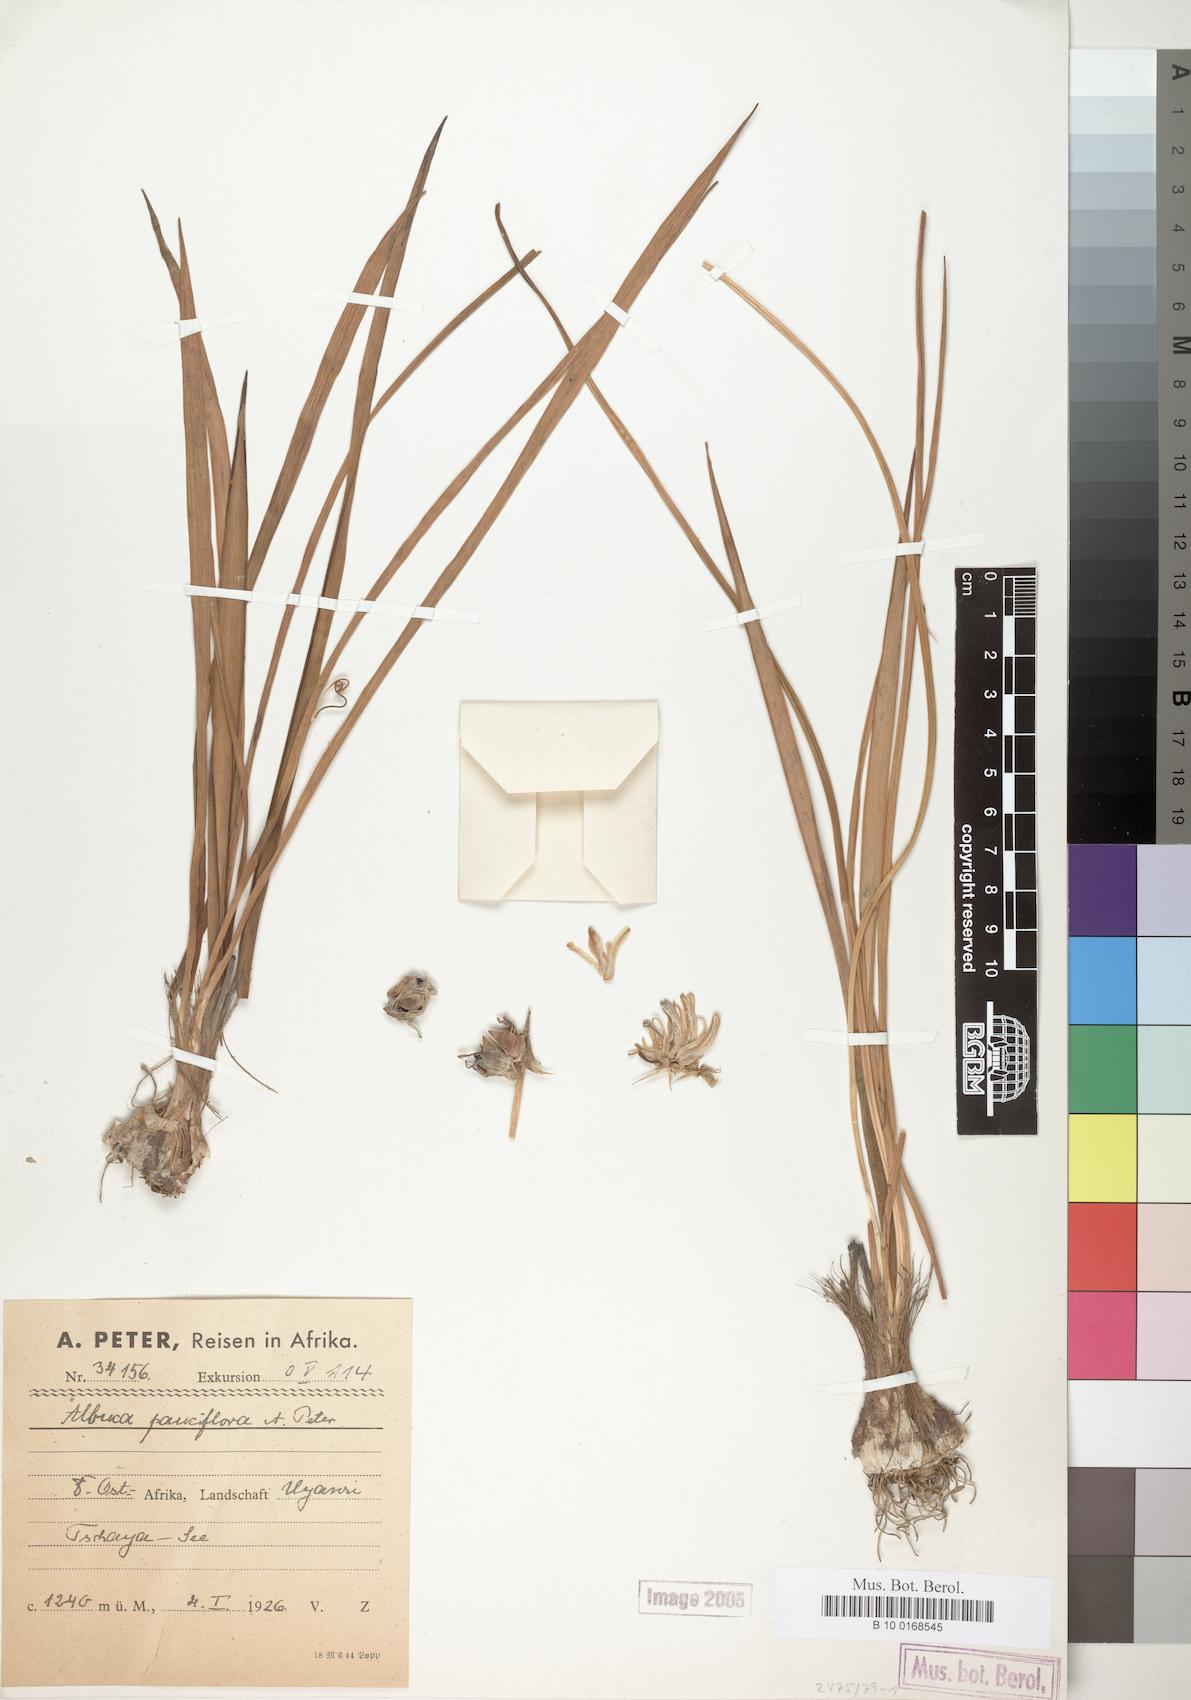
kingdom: Plantae
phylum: Tracheophyta
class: Liliopsida
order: Asparagales
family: Asparagaceae
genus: Albuca
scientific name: Albuca
